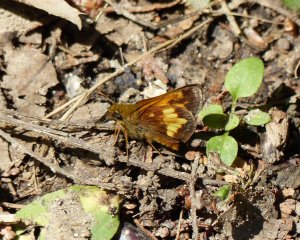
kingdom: Animalia
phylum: Arthropoda
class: Insecta
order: Lepidoptera
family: Hesperiidae
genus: Lon
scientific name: Lon hobomok
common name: Hobomok Skipper
